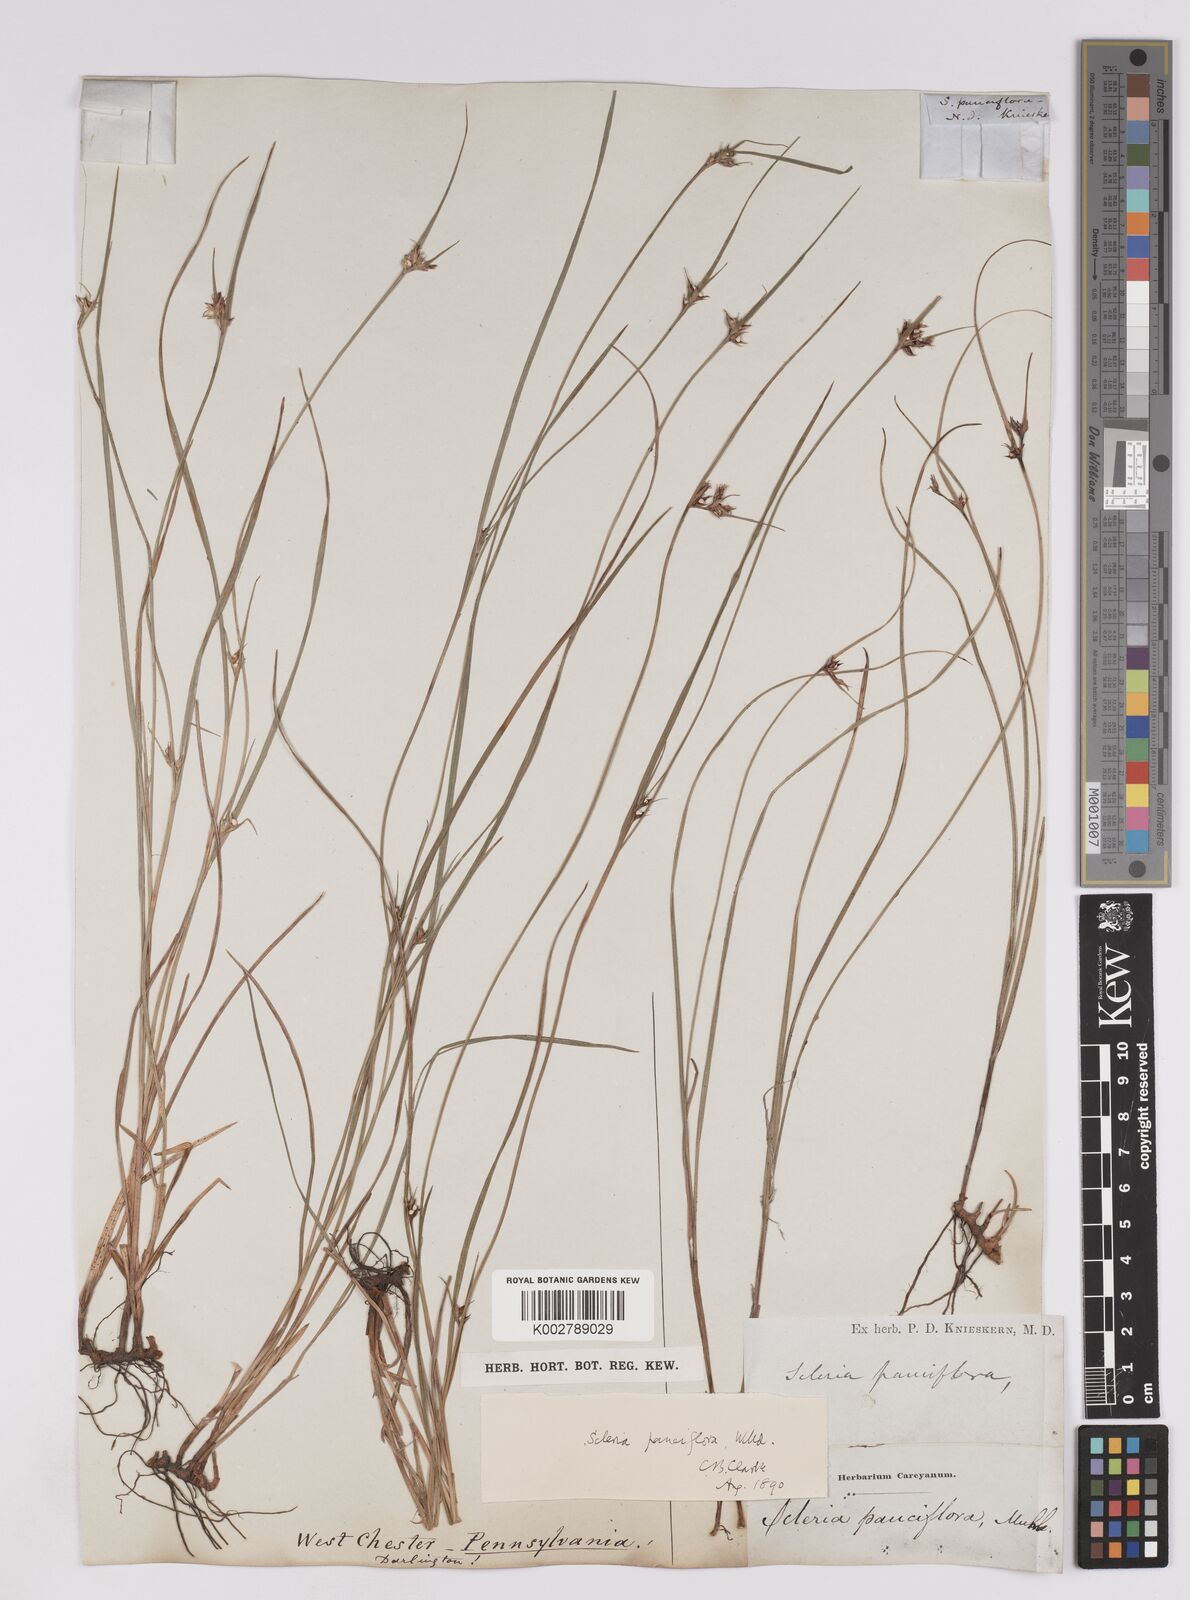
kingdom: Plantae
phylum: Tracheophyta
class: Liliopsida
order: Poales
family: Cyperaceae
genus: Scleria
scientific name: Scleria pauciflora
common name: Few-flowered nutrush
